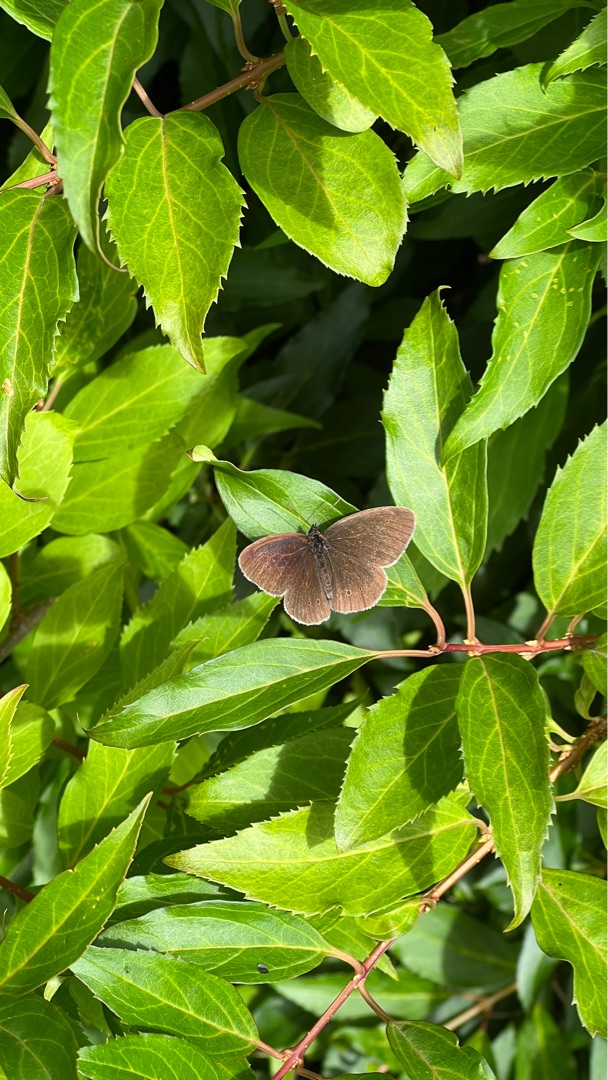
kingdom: Animalia
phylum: Arthropoda
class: Insecta
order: Lepidoptera
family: Nymphalidae
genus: Aphantopus
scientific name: Aphantopus hyperantus
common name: Engrandøje
